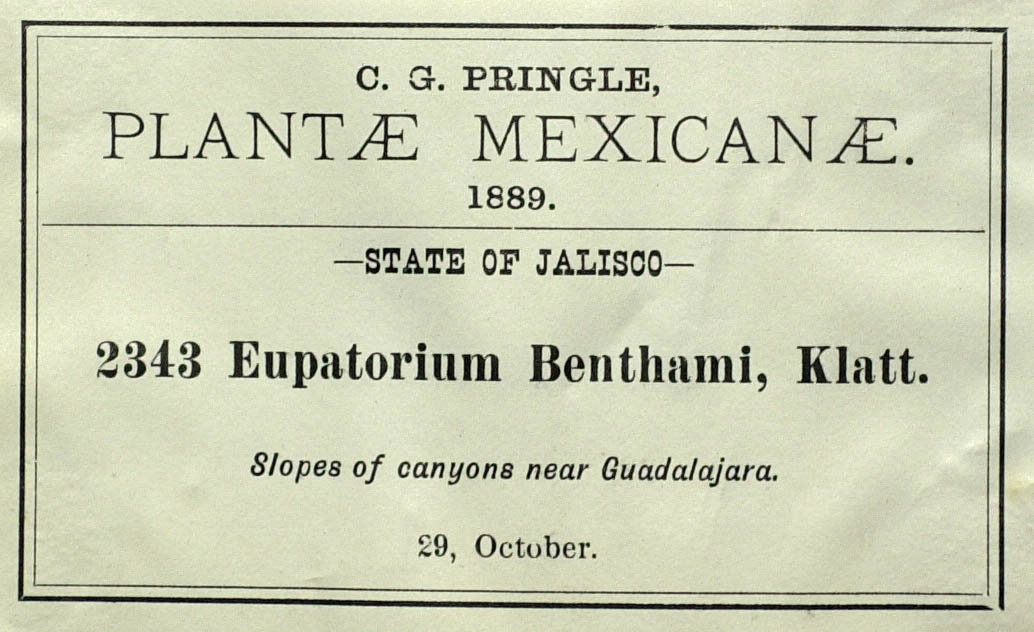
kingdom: Plantae
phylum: Tracheophyta
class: Magnoliopsida
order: Asterales
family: Asteraceae
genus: Ageratina
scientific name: Ageratina cardiophylla
